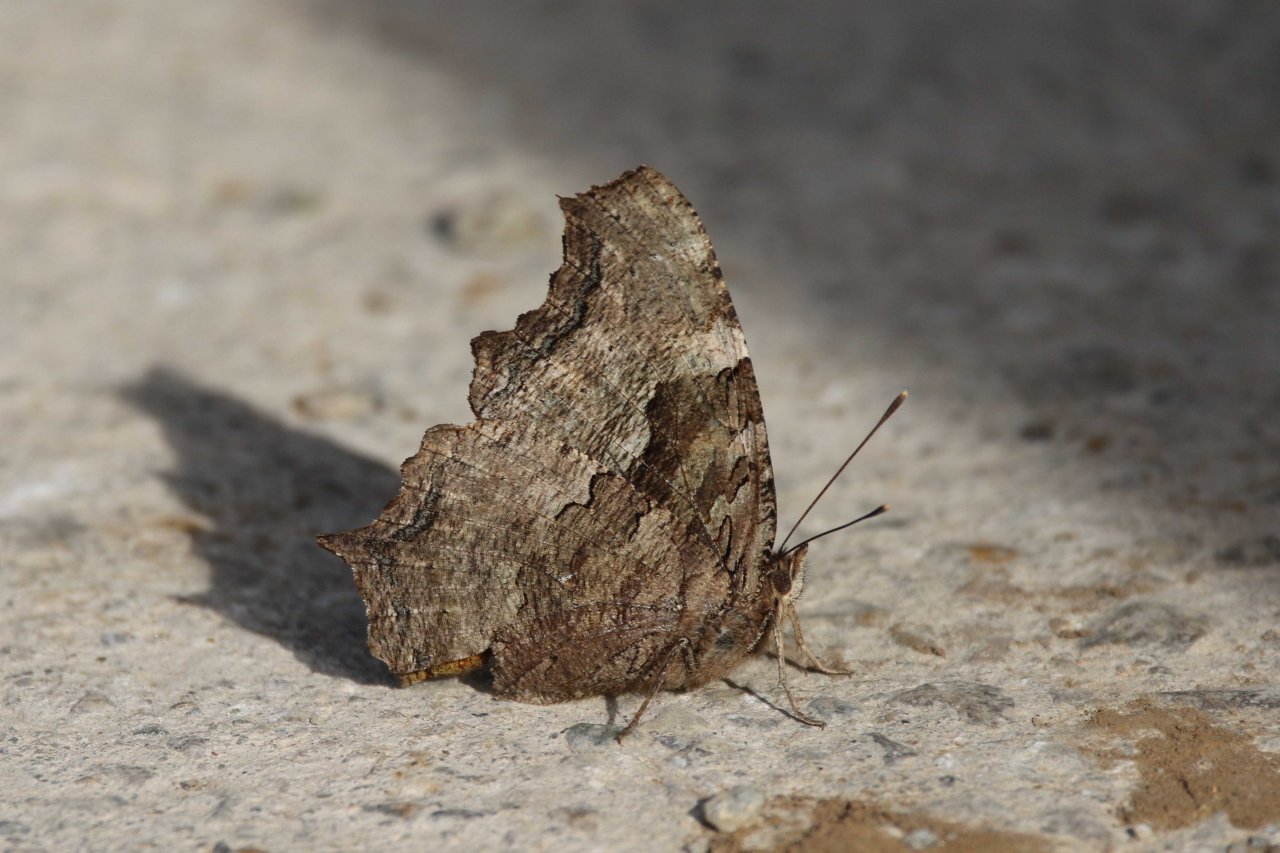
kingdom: Animalia
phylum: Arthropoda
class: Insecta
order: Lepidoptera
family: Nymphalidae
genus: Polygonia
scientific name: Polygonia vaualbum
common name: Compton Tortoiseshell
